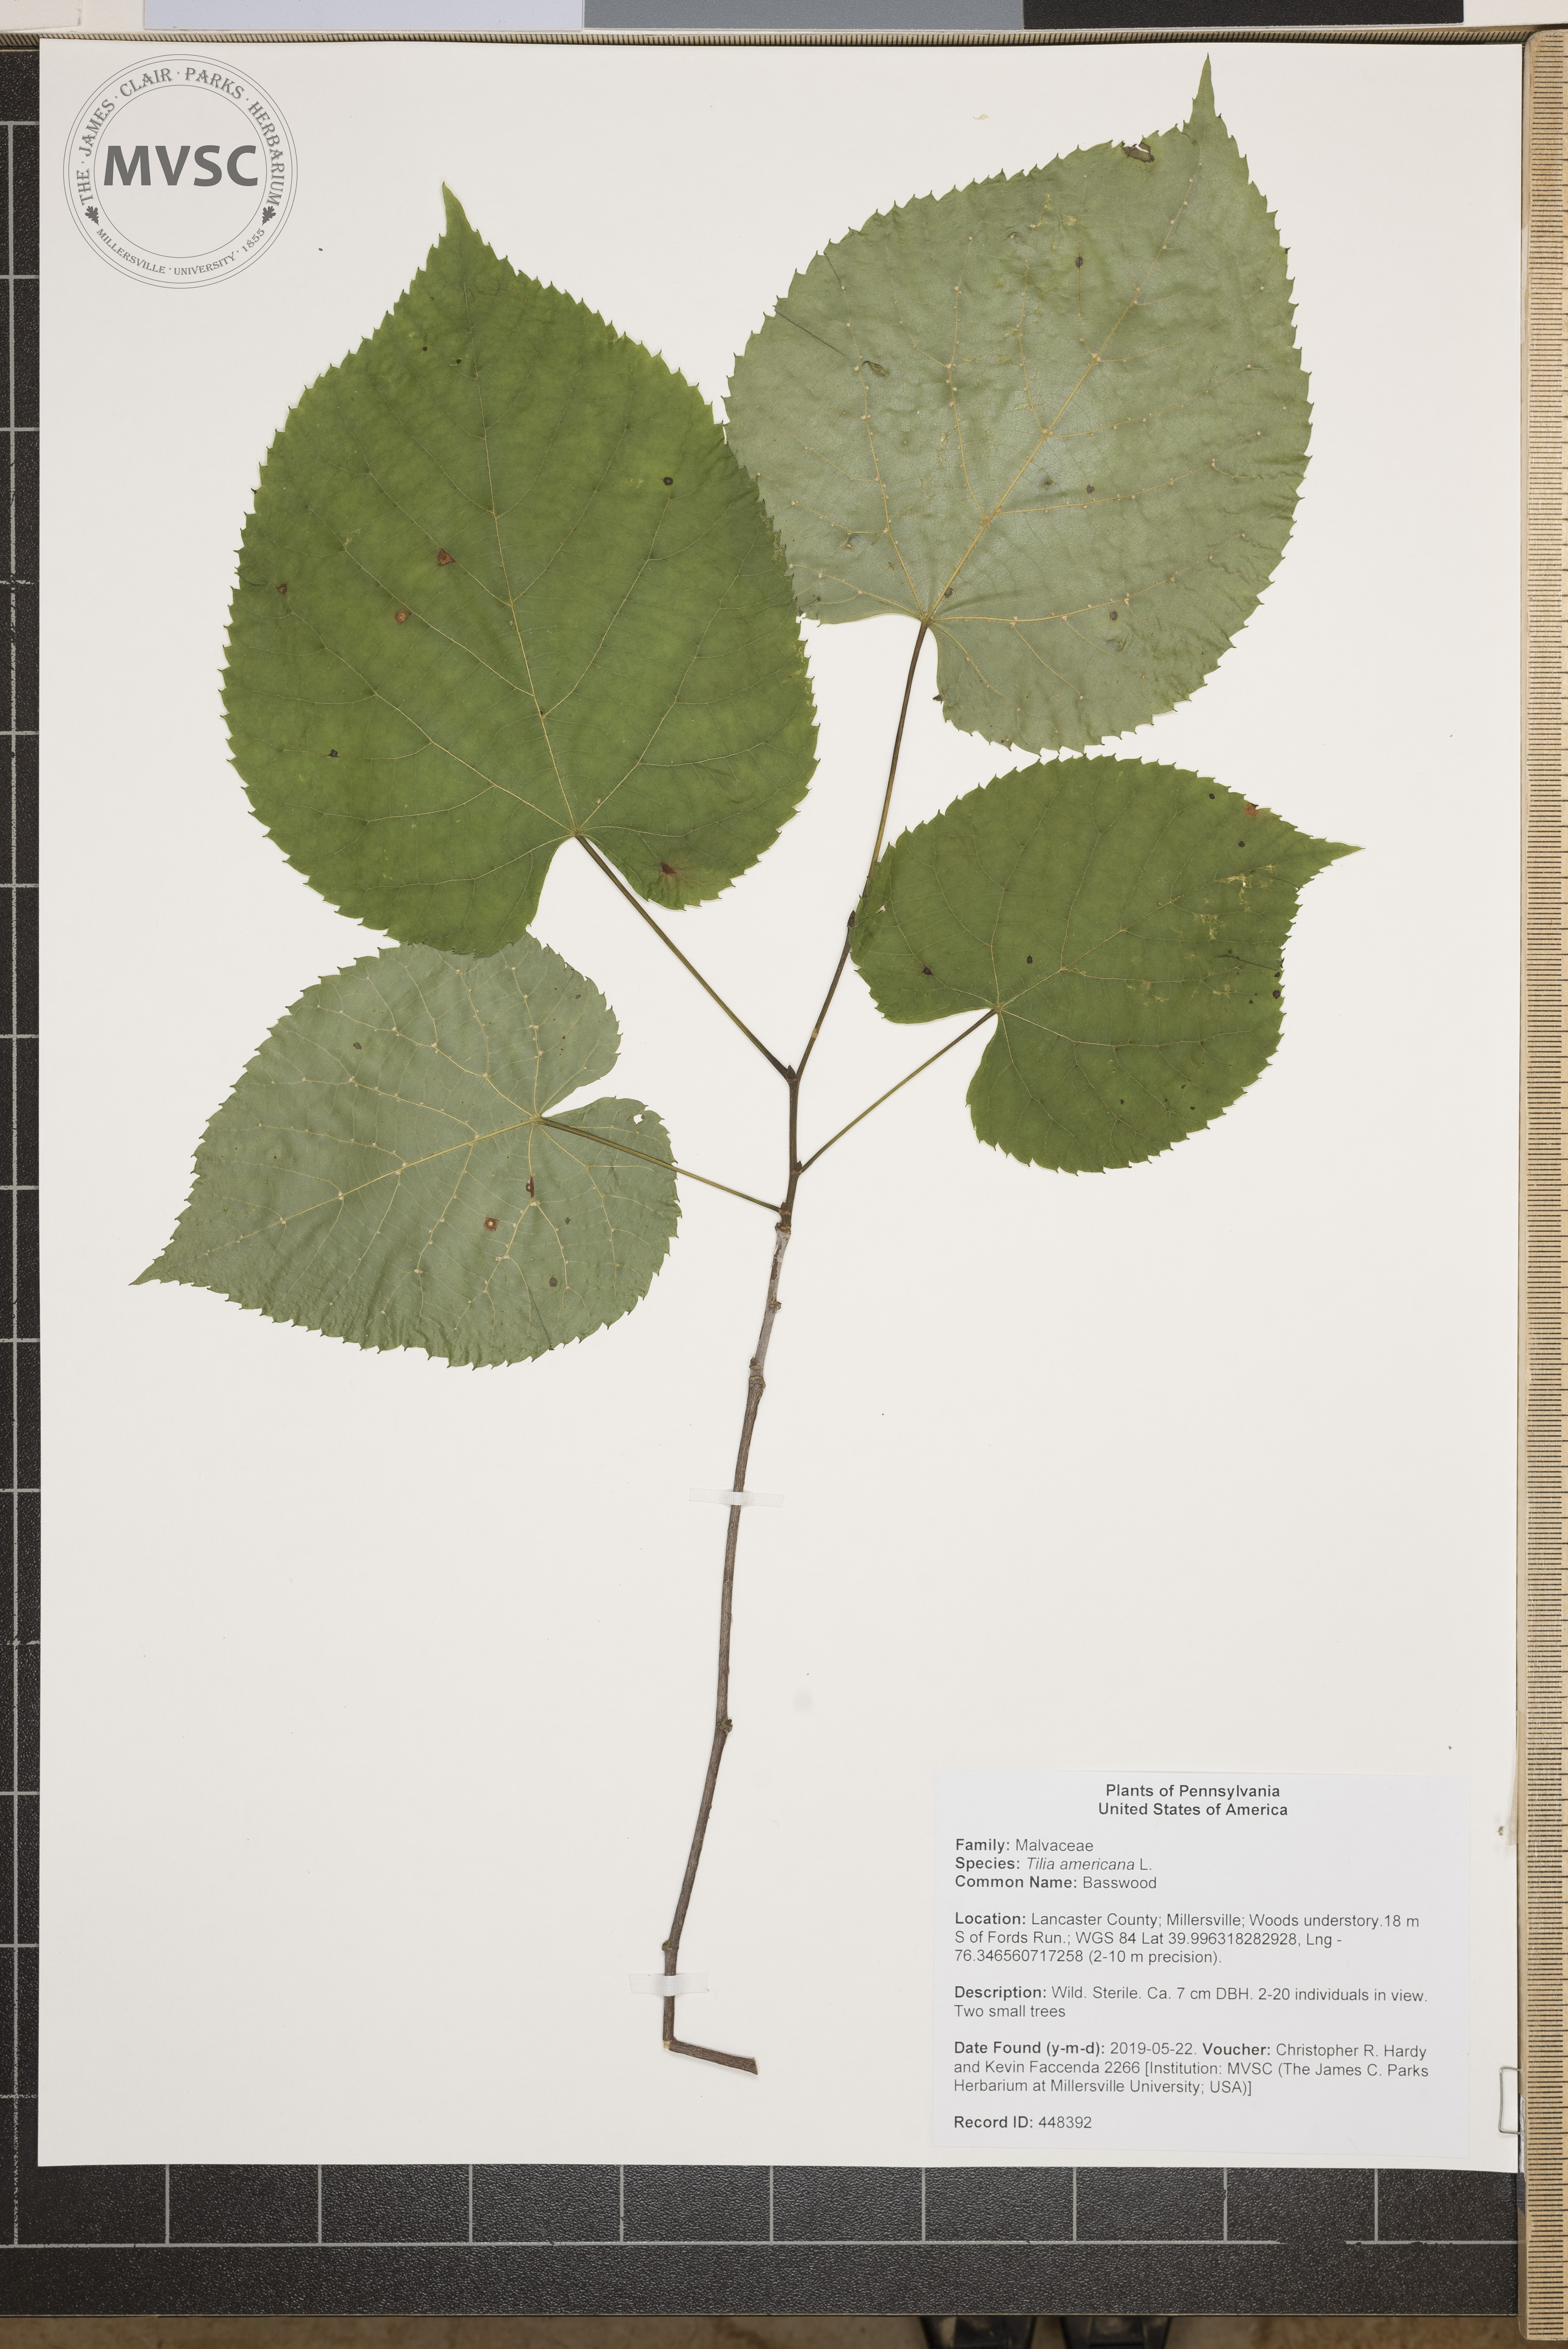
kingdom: Plantae
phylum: Tracheophyta
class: Magnoliopsida
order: Malvales
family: Malvaceae
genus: Tilia
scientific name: Tilia americana
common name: Basswood
